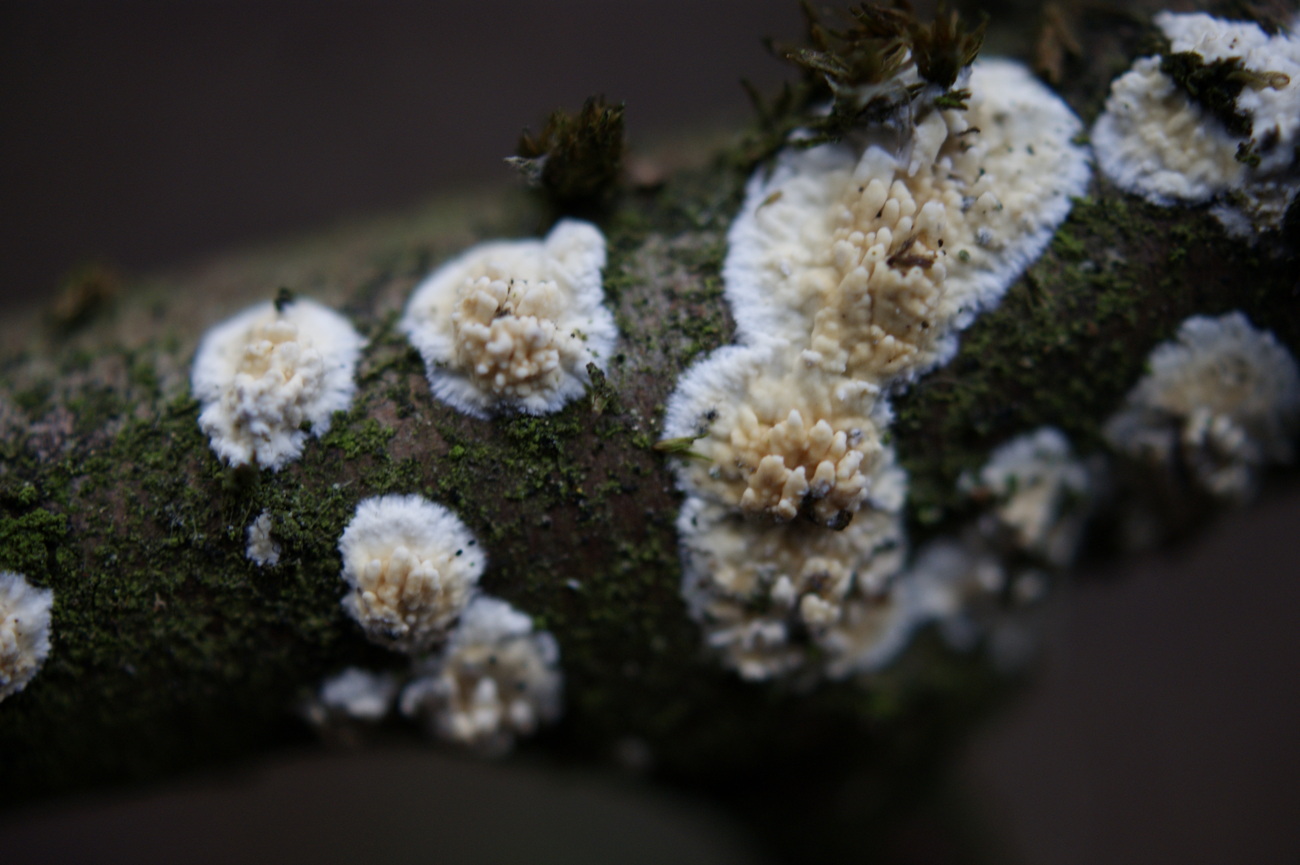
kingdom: Fungi
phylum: Basidiomycota
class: Agaricomycetes
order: Hymenochaetales
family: Schizoporaceae
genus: Xylodon
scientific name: Xylodon radula
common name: grovtandet kalkskind
